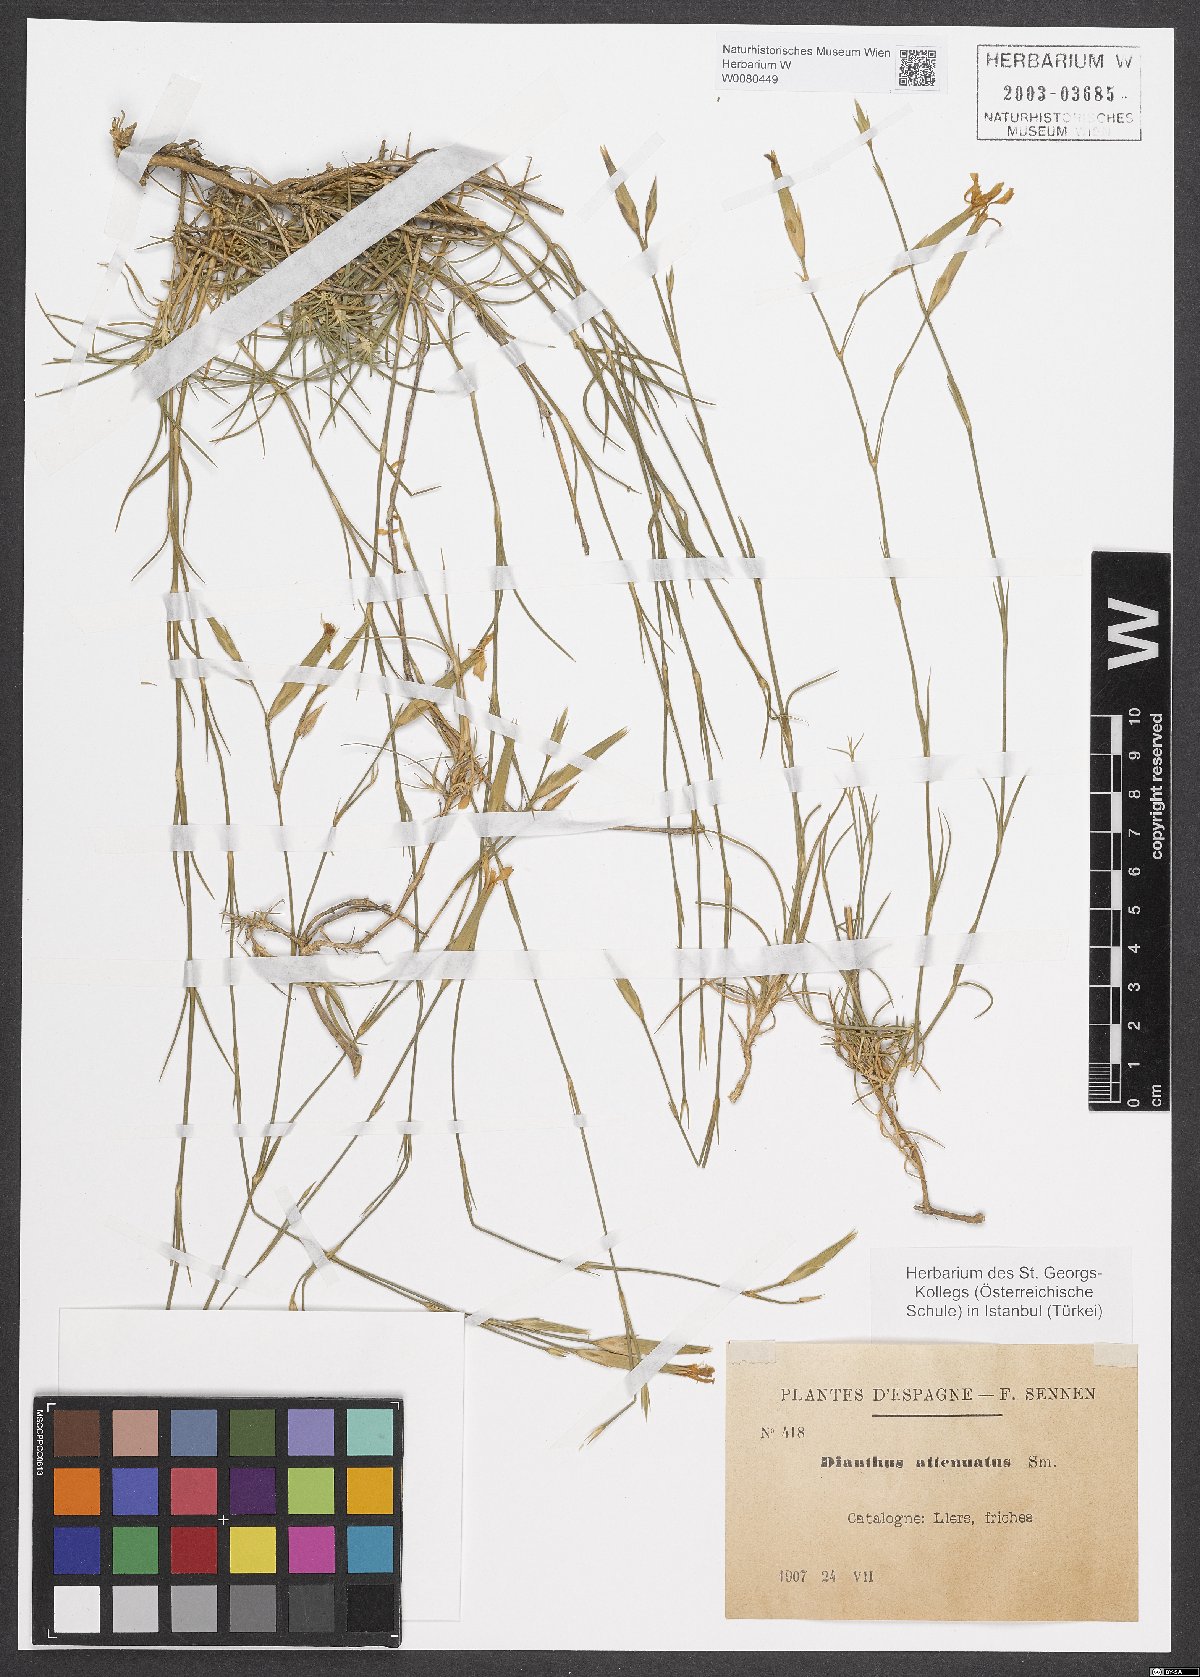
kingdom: Plantae
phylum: Tracheophyta
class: Magnoliopsida
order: Caryophyllales
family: Caryophyllaceae
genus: Dianthus
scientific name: Dianthus pyrenaicus
